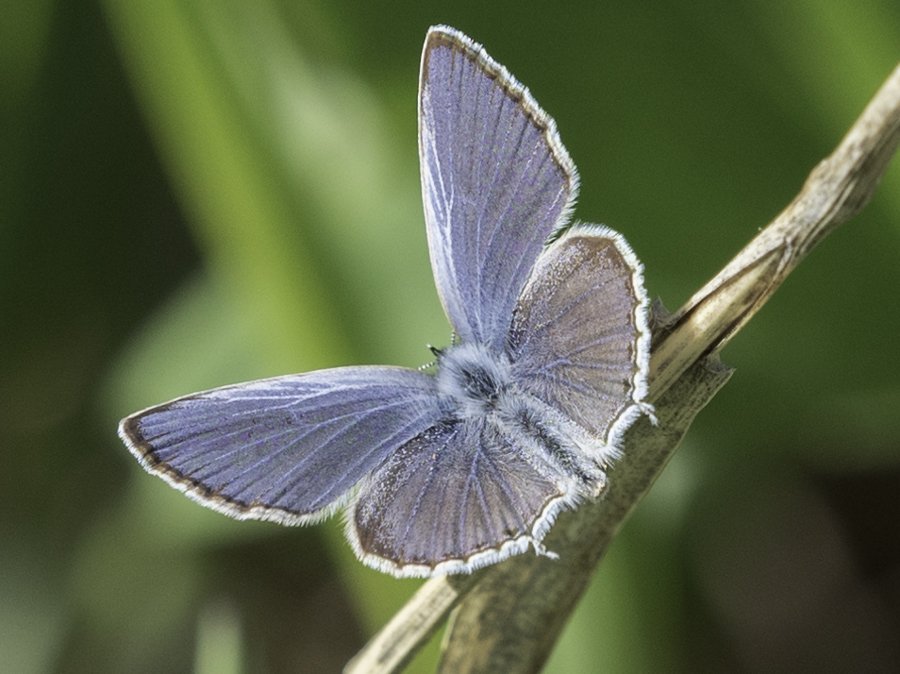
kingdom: Animalia
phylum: Arthropoda
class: Insecta
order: Lepidoptera
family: Lycaenidae
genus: Elkalyce
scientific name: Elkalyce amyntula
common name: Western Tailed-Blue
